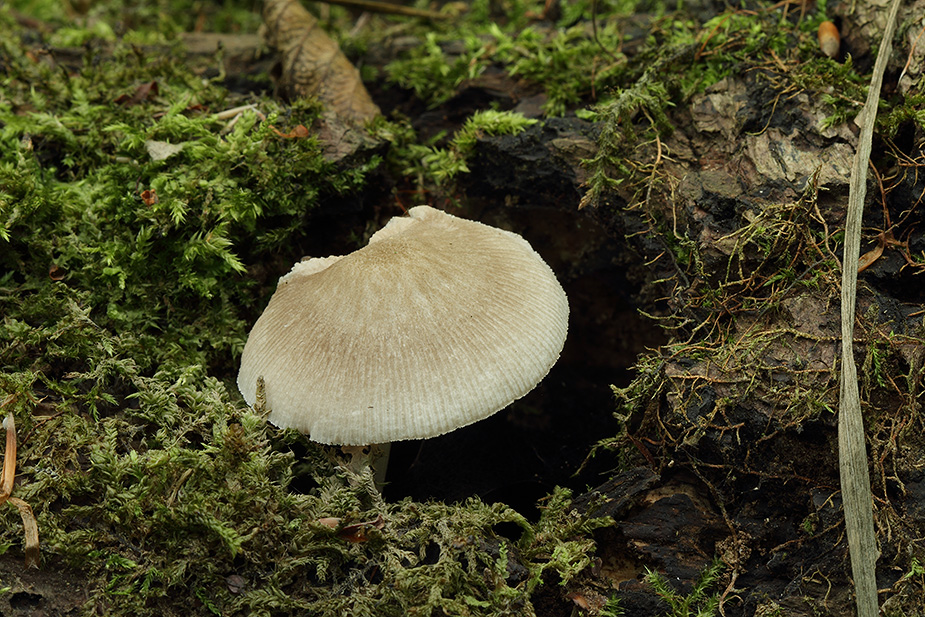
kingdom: Fungi
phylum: Basidiomycota
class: Agaricomycetes
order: Agaricales
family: Pluteaceae
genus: Pluteus
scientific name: Pluteus longistriatus
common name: hjul-skærmhat
